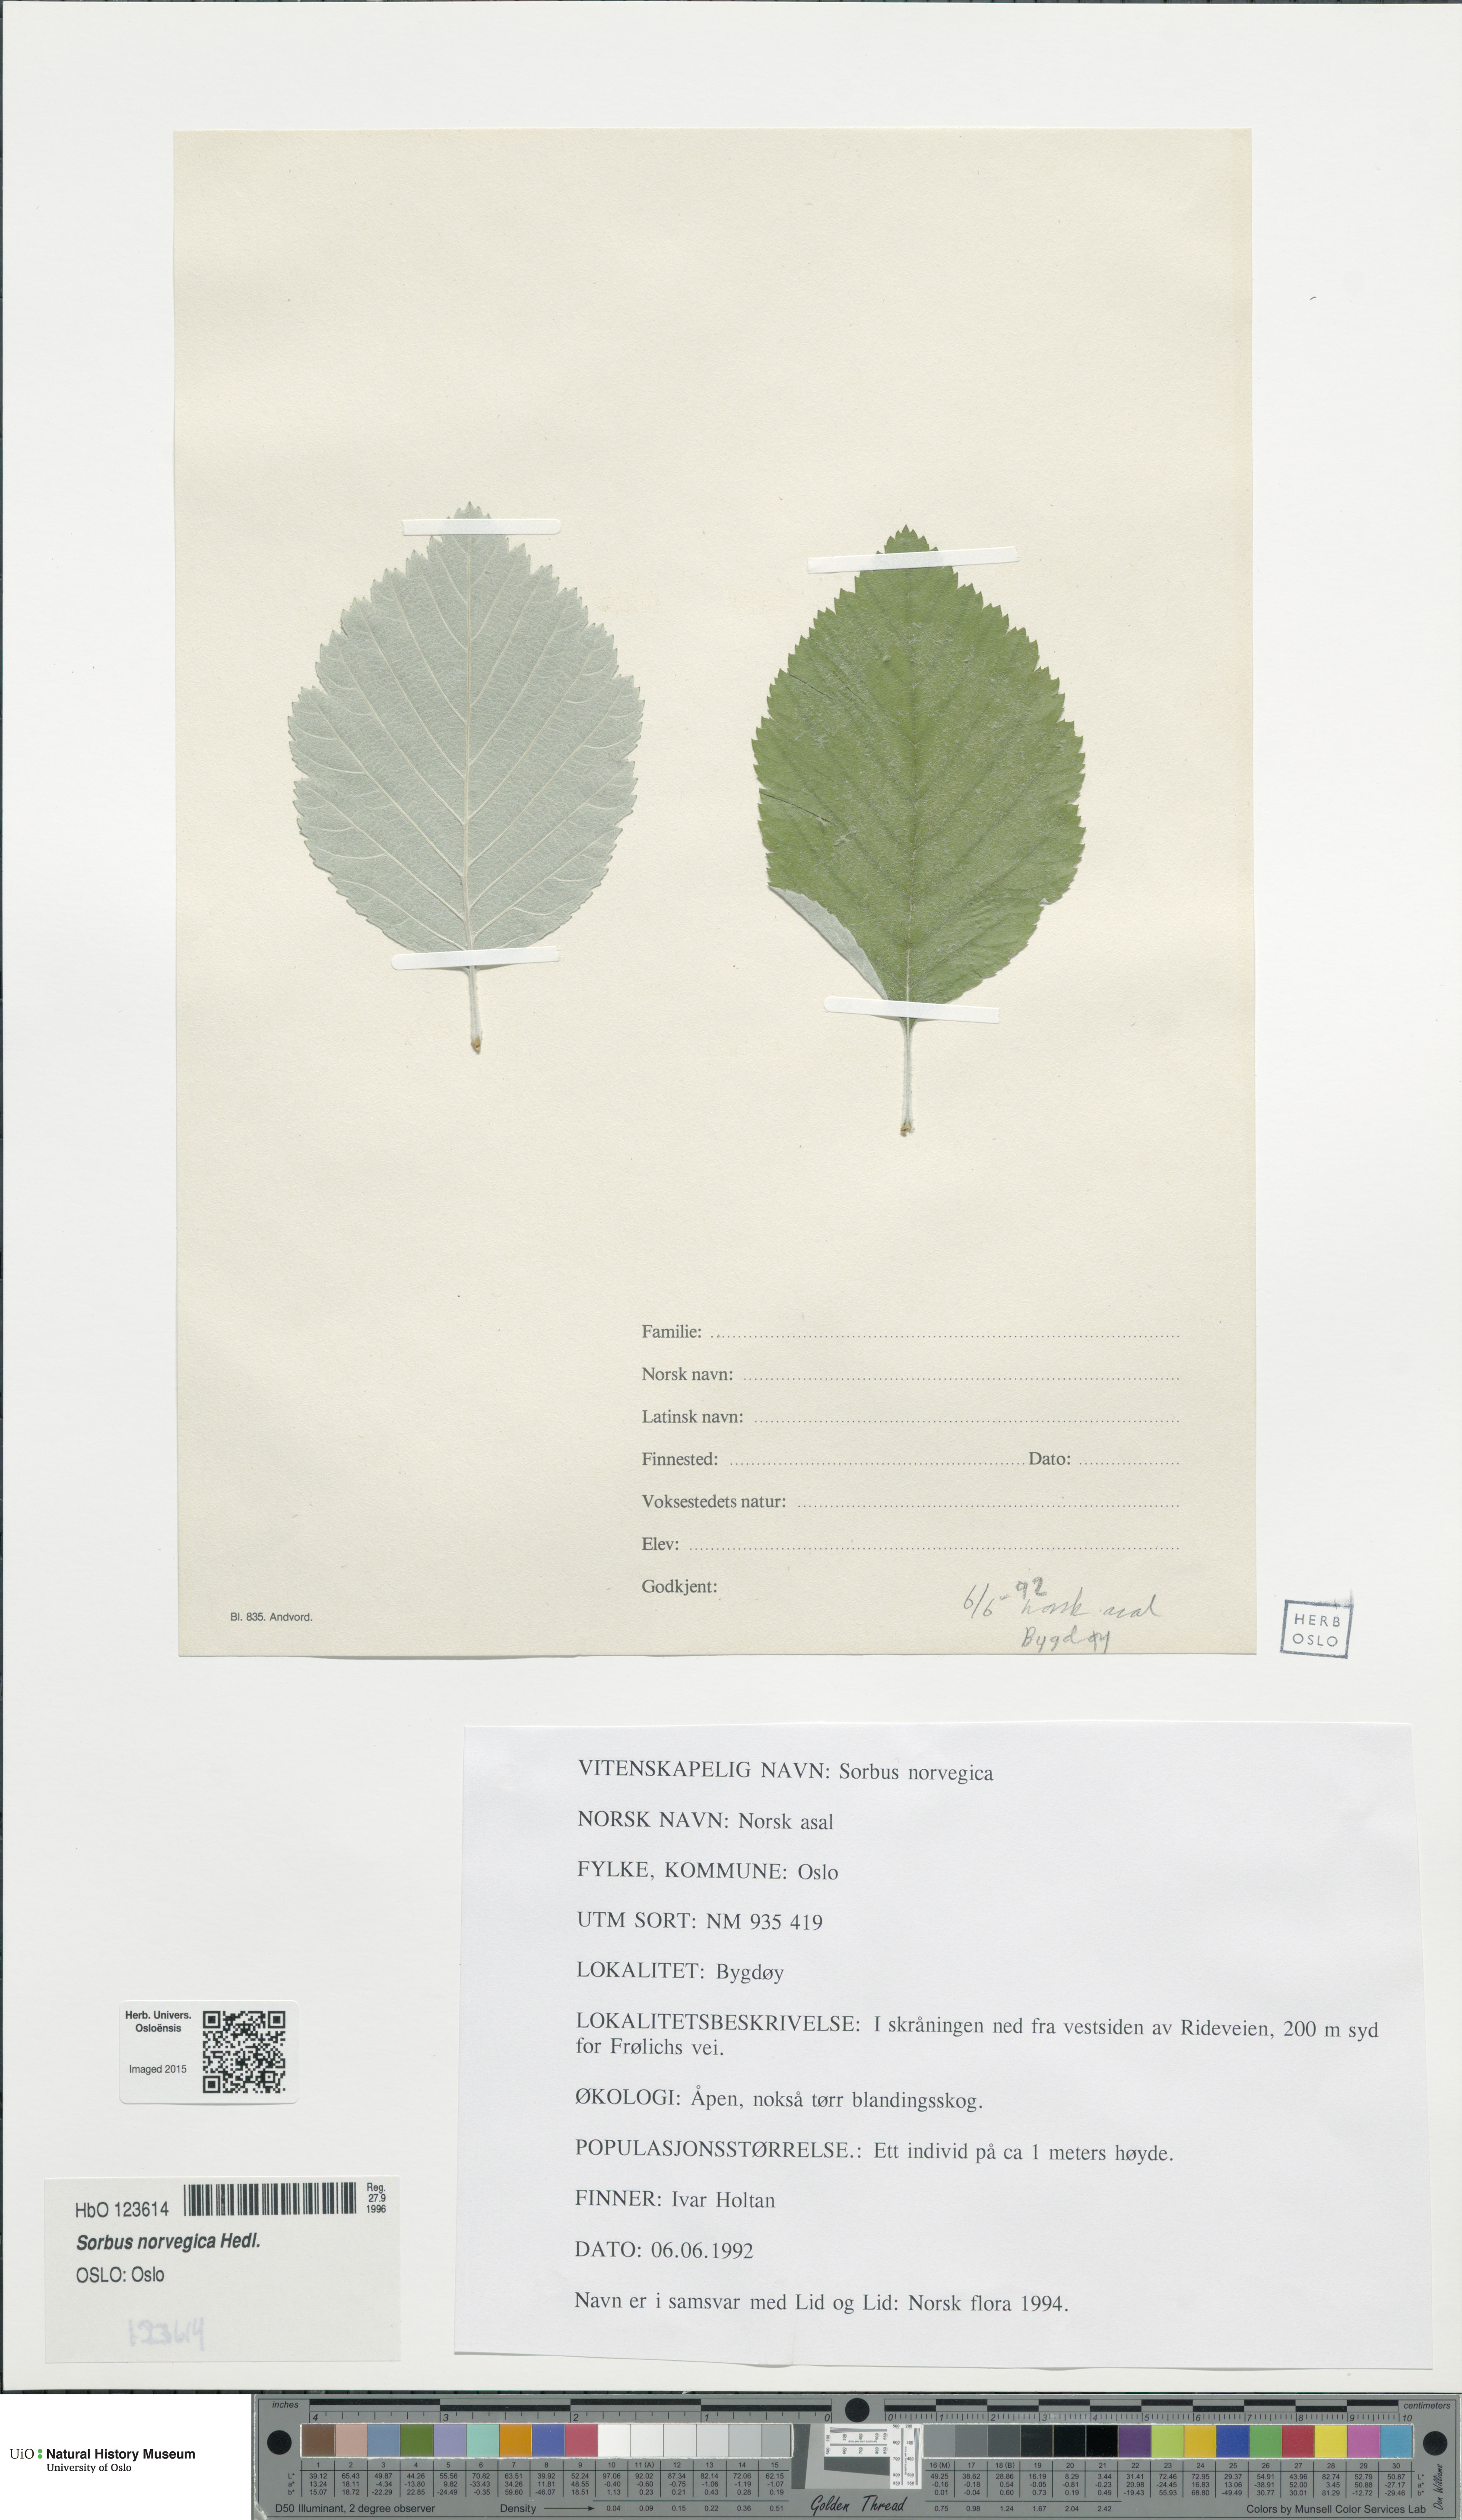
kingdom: Plantae
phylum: Tracheophyta
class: Magnoliopsida
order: Rosales
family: Rosaceae
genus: Aria
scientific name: Aria obtusifolia
